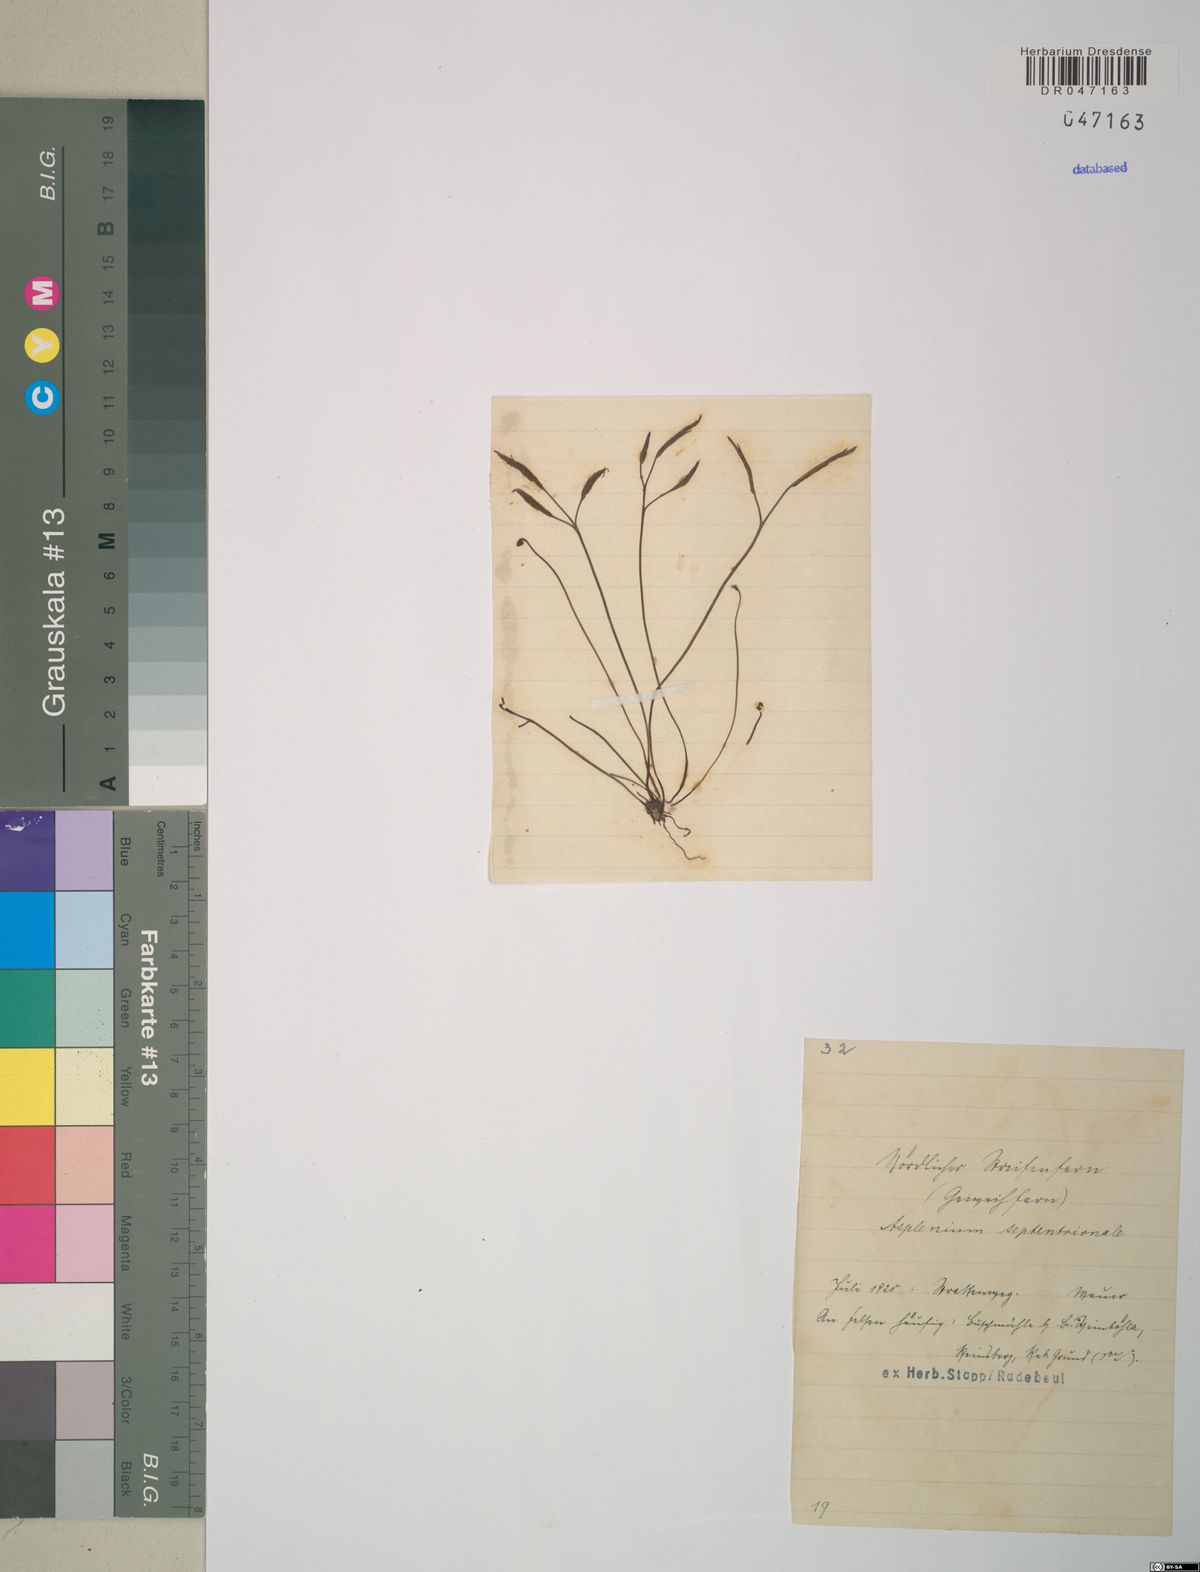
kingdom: Plantae
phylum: Tracheophyta
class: Polypodiopsida
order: Polypodiales
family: Aspleniaceae
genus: Asplenium
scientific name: Asplenium septentrionale
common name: Forked spleenwort
